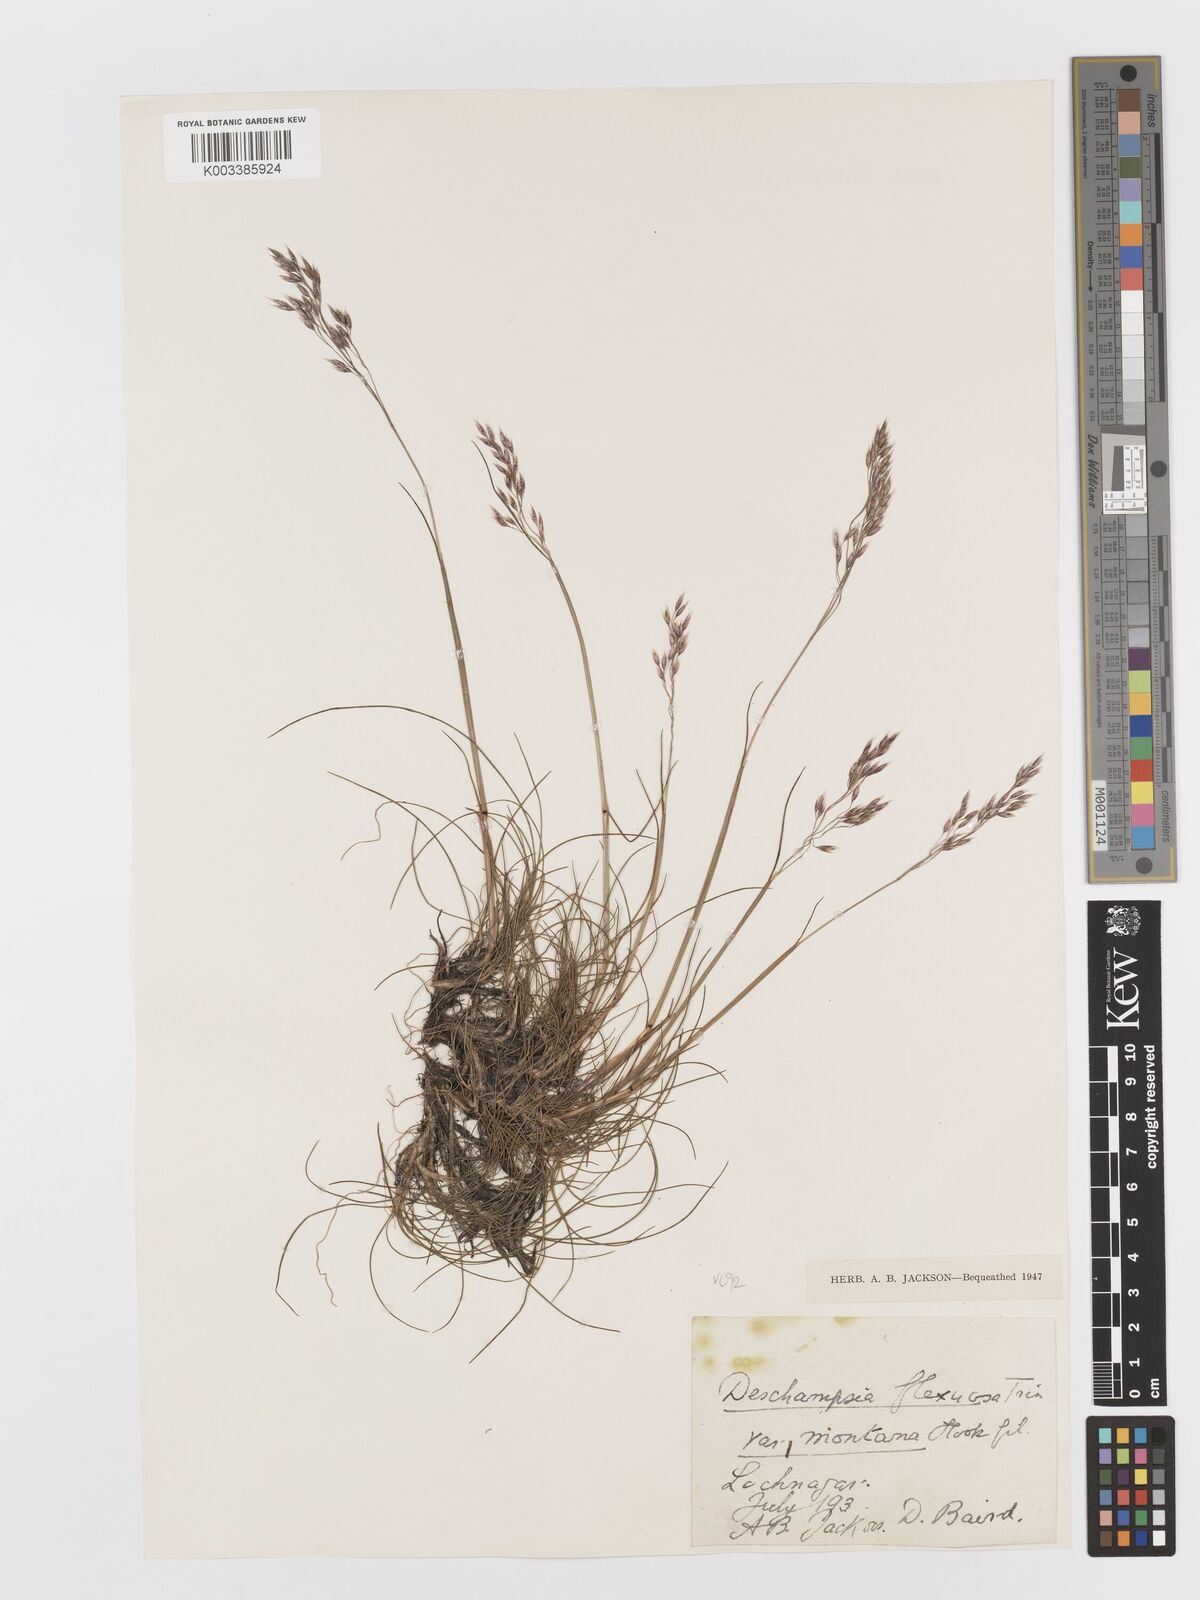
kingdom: Plantae
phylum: Tracheophyta
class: Liliopsida
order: Poales
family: Poaceae
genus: Avenella
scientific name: Avenella flexuosa
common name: Wavy hairgrass
